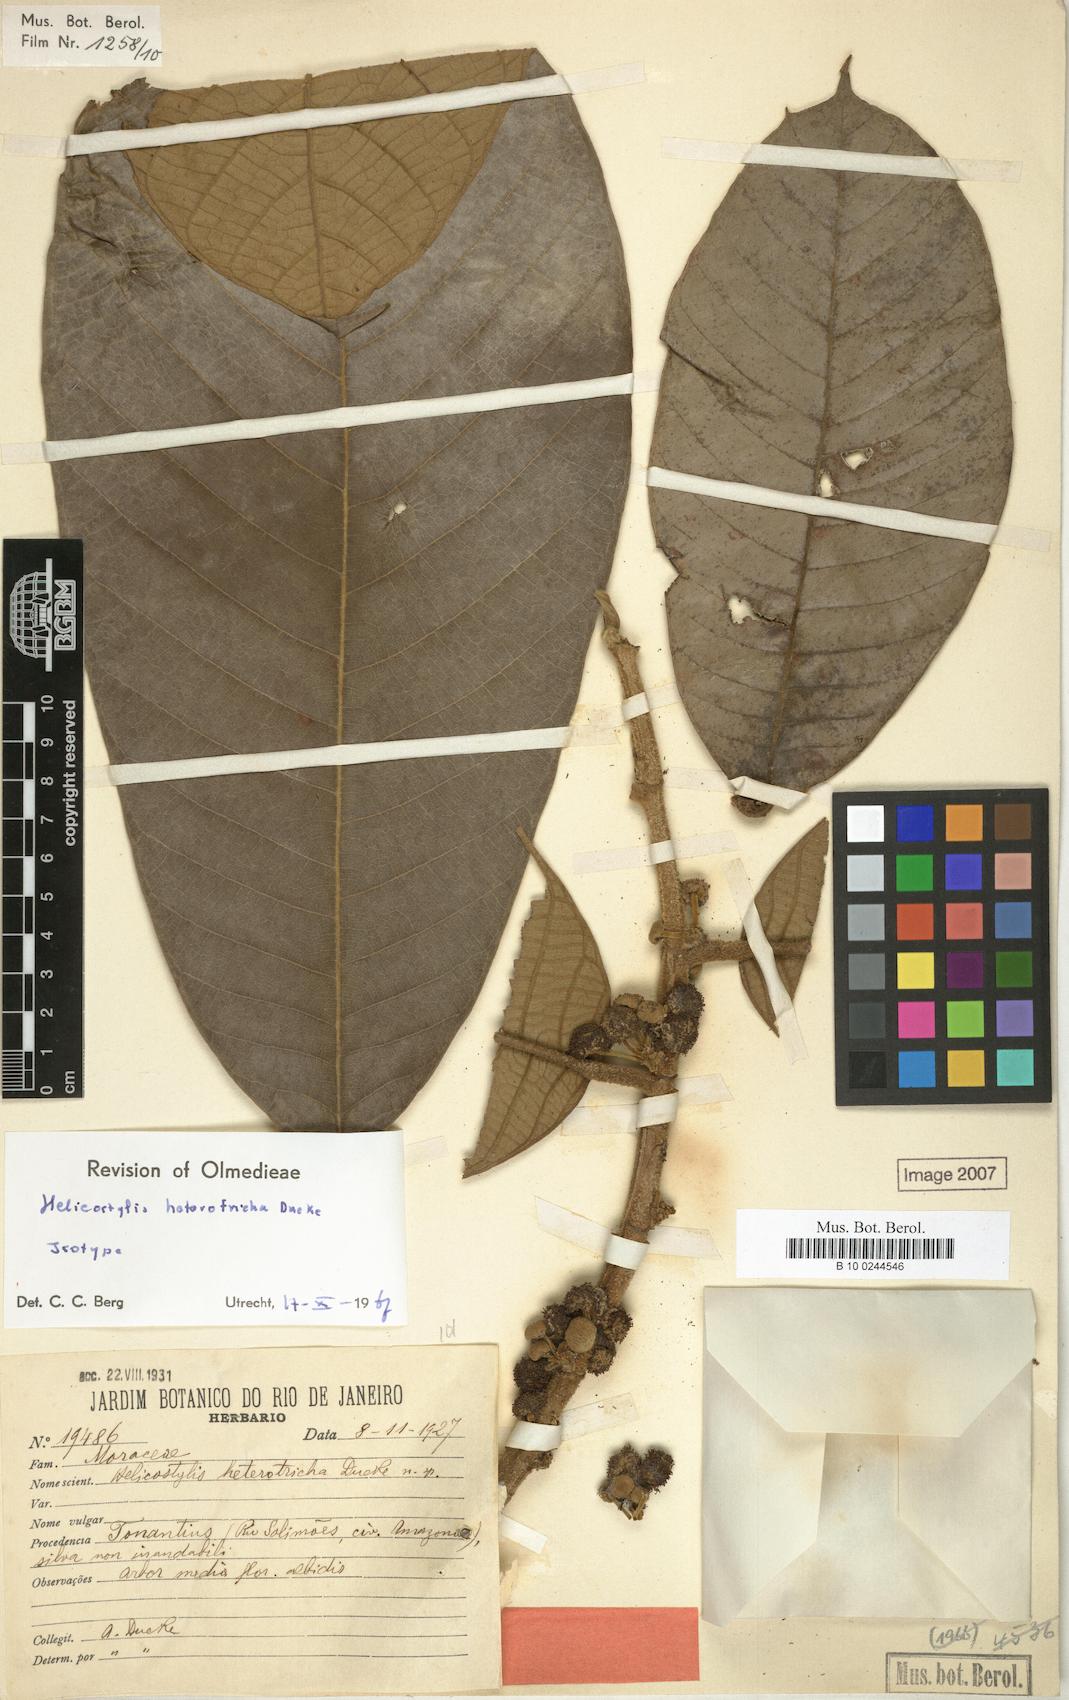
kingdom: Plantae
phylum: Tracheophyta
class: Magnoliopsida
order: Rosales
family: Moraceae
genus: Helicostylis
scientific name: Helicostylis heterotricha
